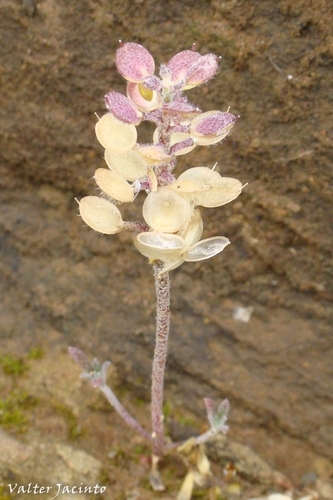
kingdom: Plantae
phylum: Tracheophyta
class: Magnoliopsida
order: Brassicales
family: Brassicaceae
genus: Alyssum
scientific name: Alyssum granatense
